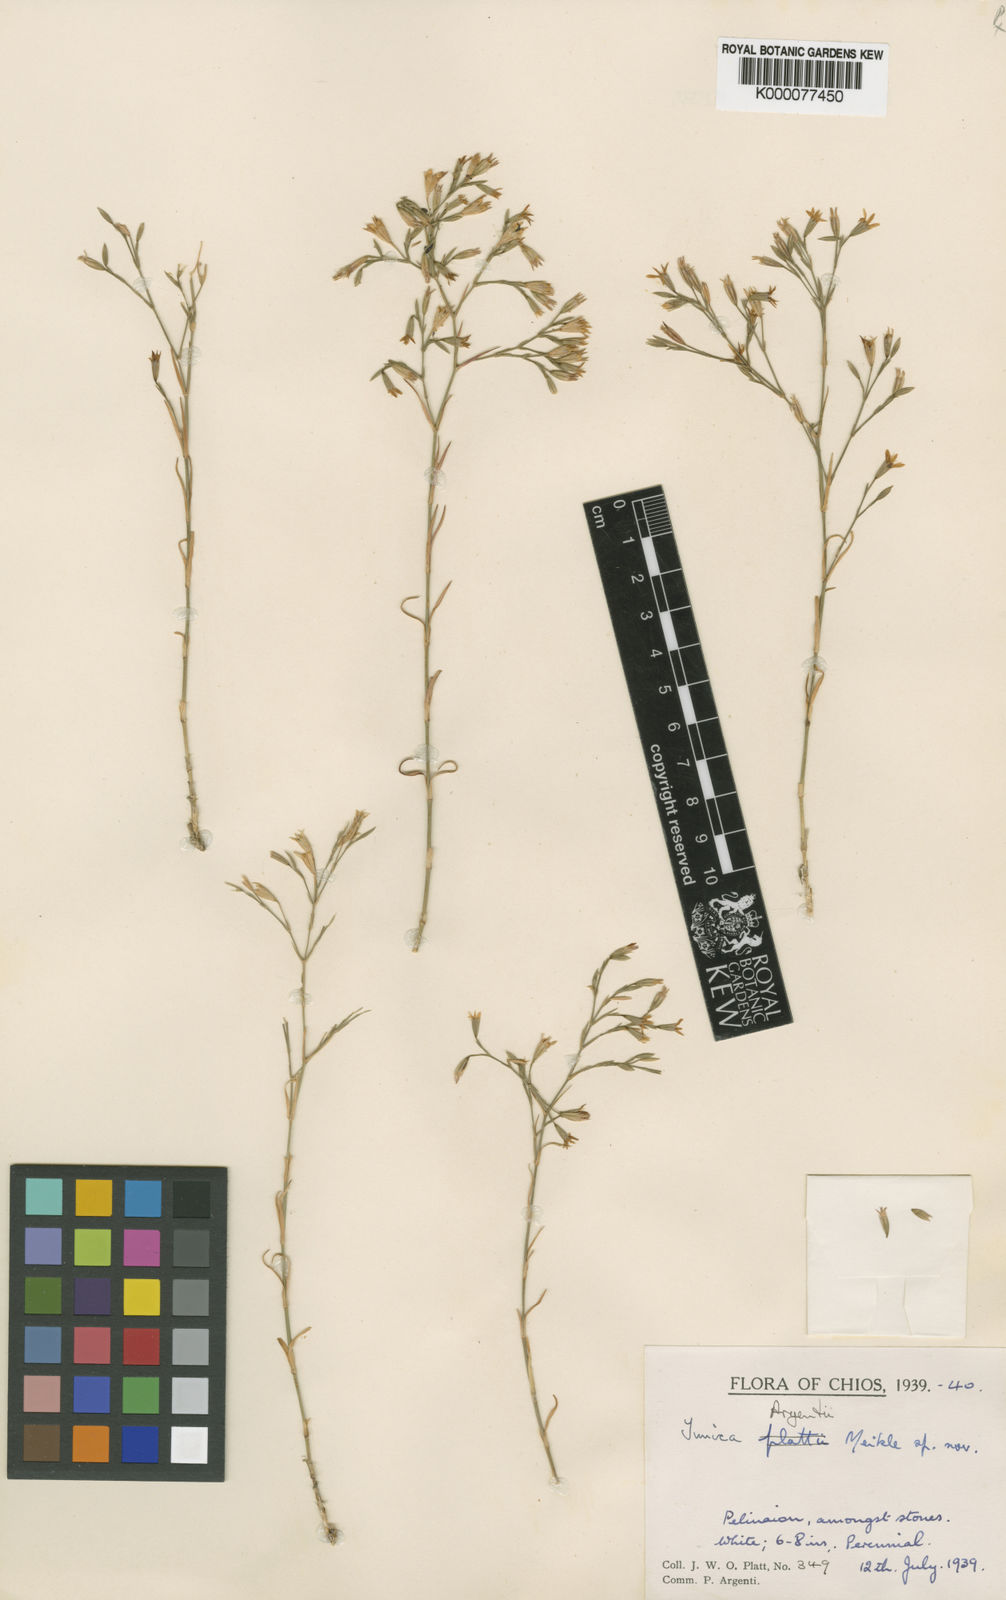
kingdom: Plantae
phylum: Tracheophyta
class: Magnoliopsida
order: Caryophyllales
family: Caryophyllaceae
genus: Dianthus
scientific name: Dianthus tunicoides
